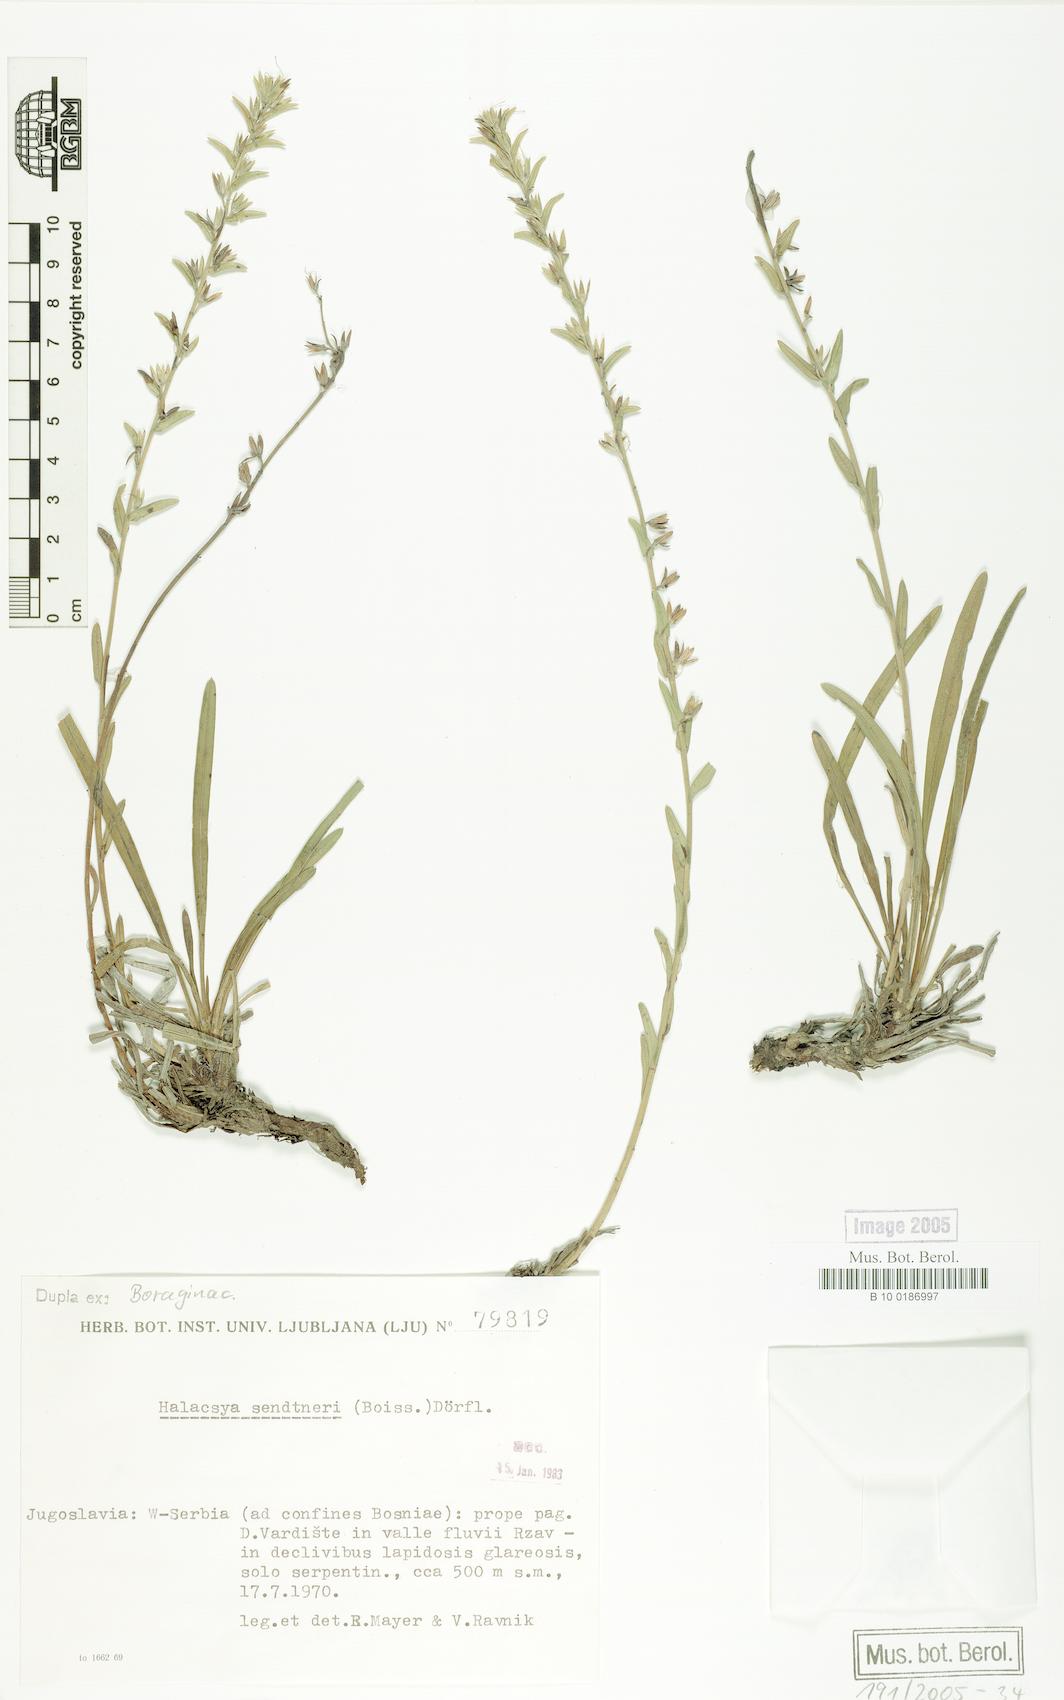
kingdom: Plantae
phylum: Tracheophyta
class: Magnoliopsida
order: Boraginales
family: Boraginaceae
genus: Halacsya
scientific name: Halacsya sendtneri
